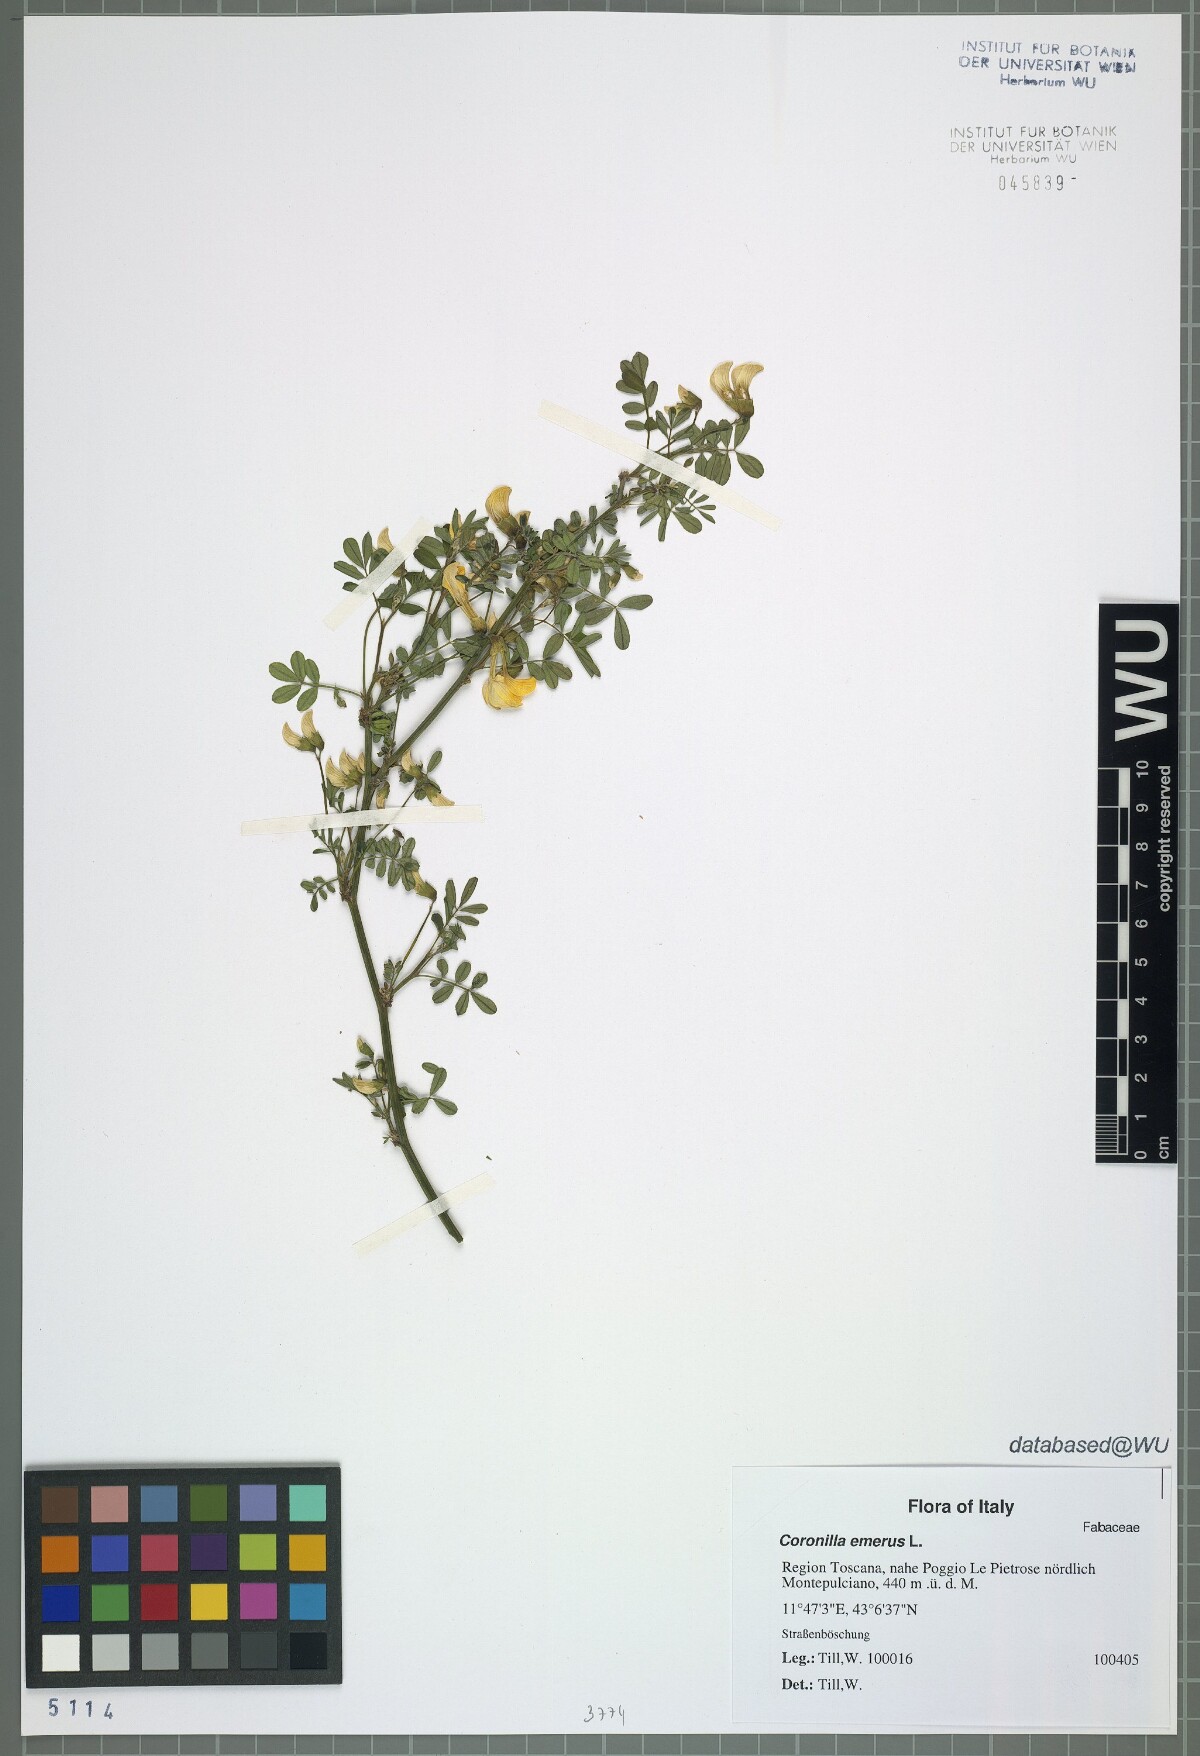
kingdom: Plantae
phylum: Tracheophyta
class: Magnoliopsida
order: Fabales
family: Fabaceae
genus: Hippocrepis
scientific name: Hippocrepis emerus
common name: Scorpion senna
